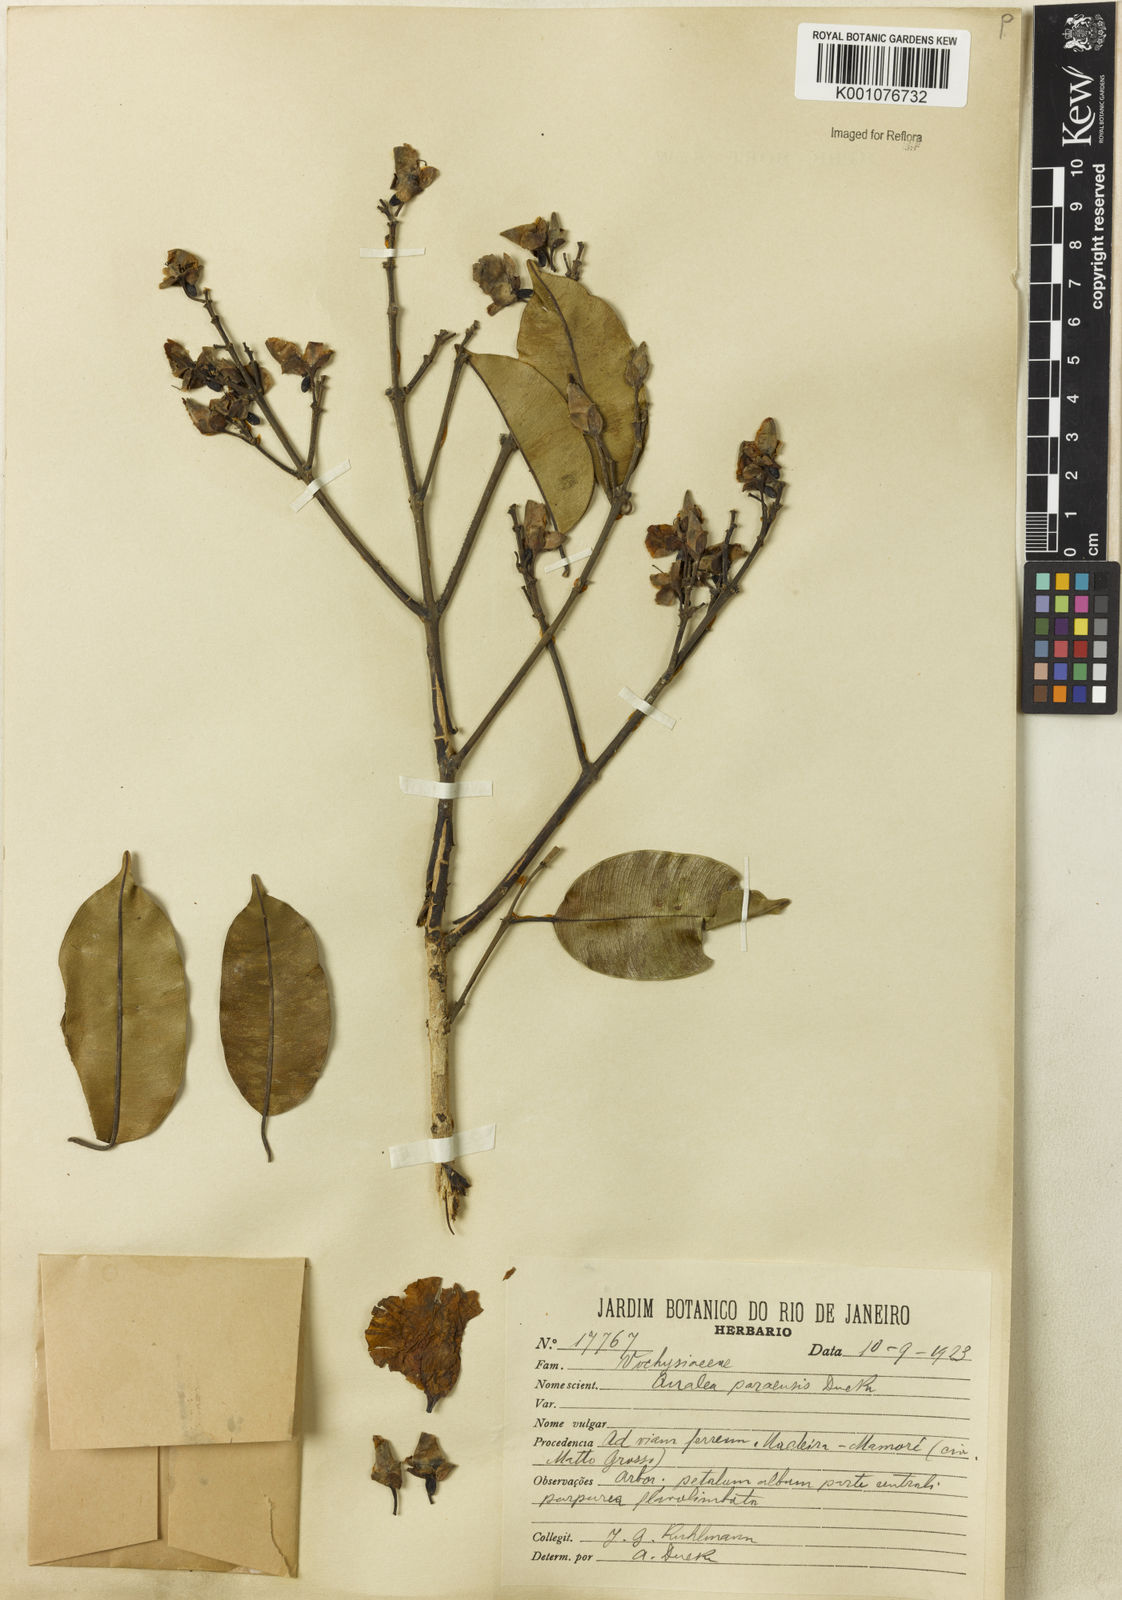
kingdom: Plantae
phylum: Tracheophyta
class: Magnoliopsida
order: Myrtales
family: Vochysiaceae
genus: Qualea
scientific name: Qualea paraensis
